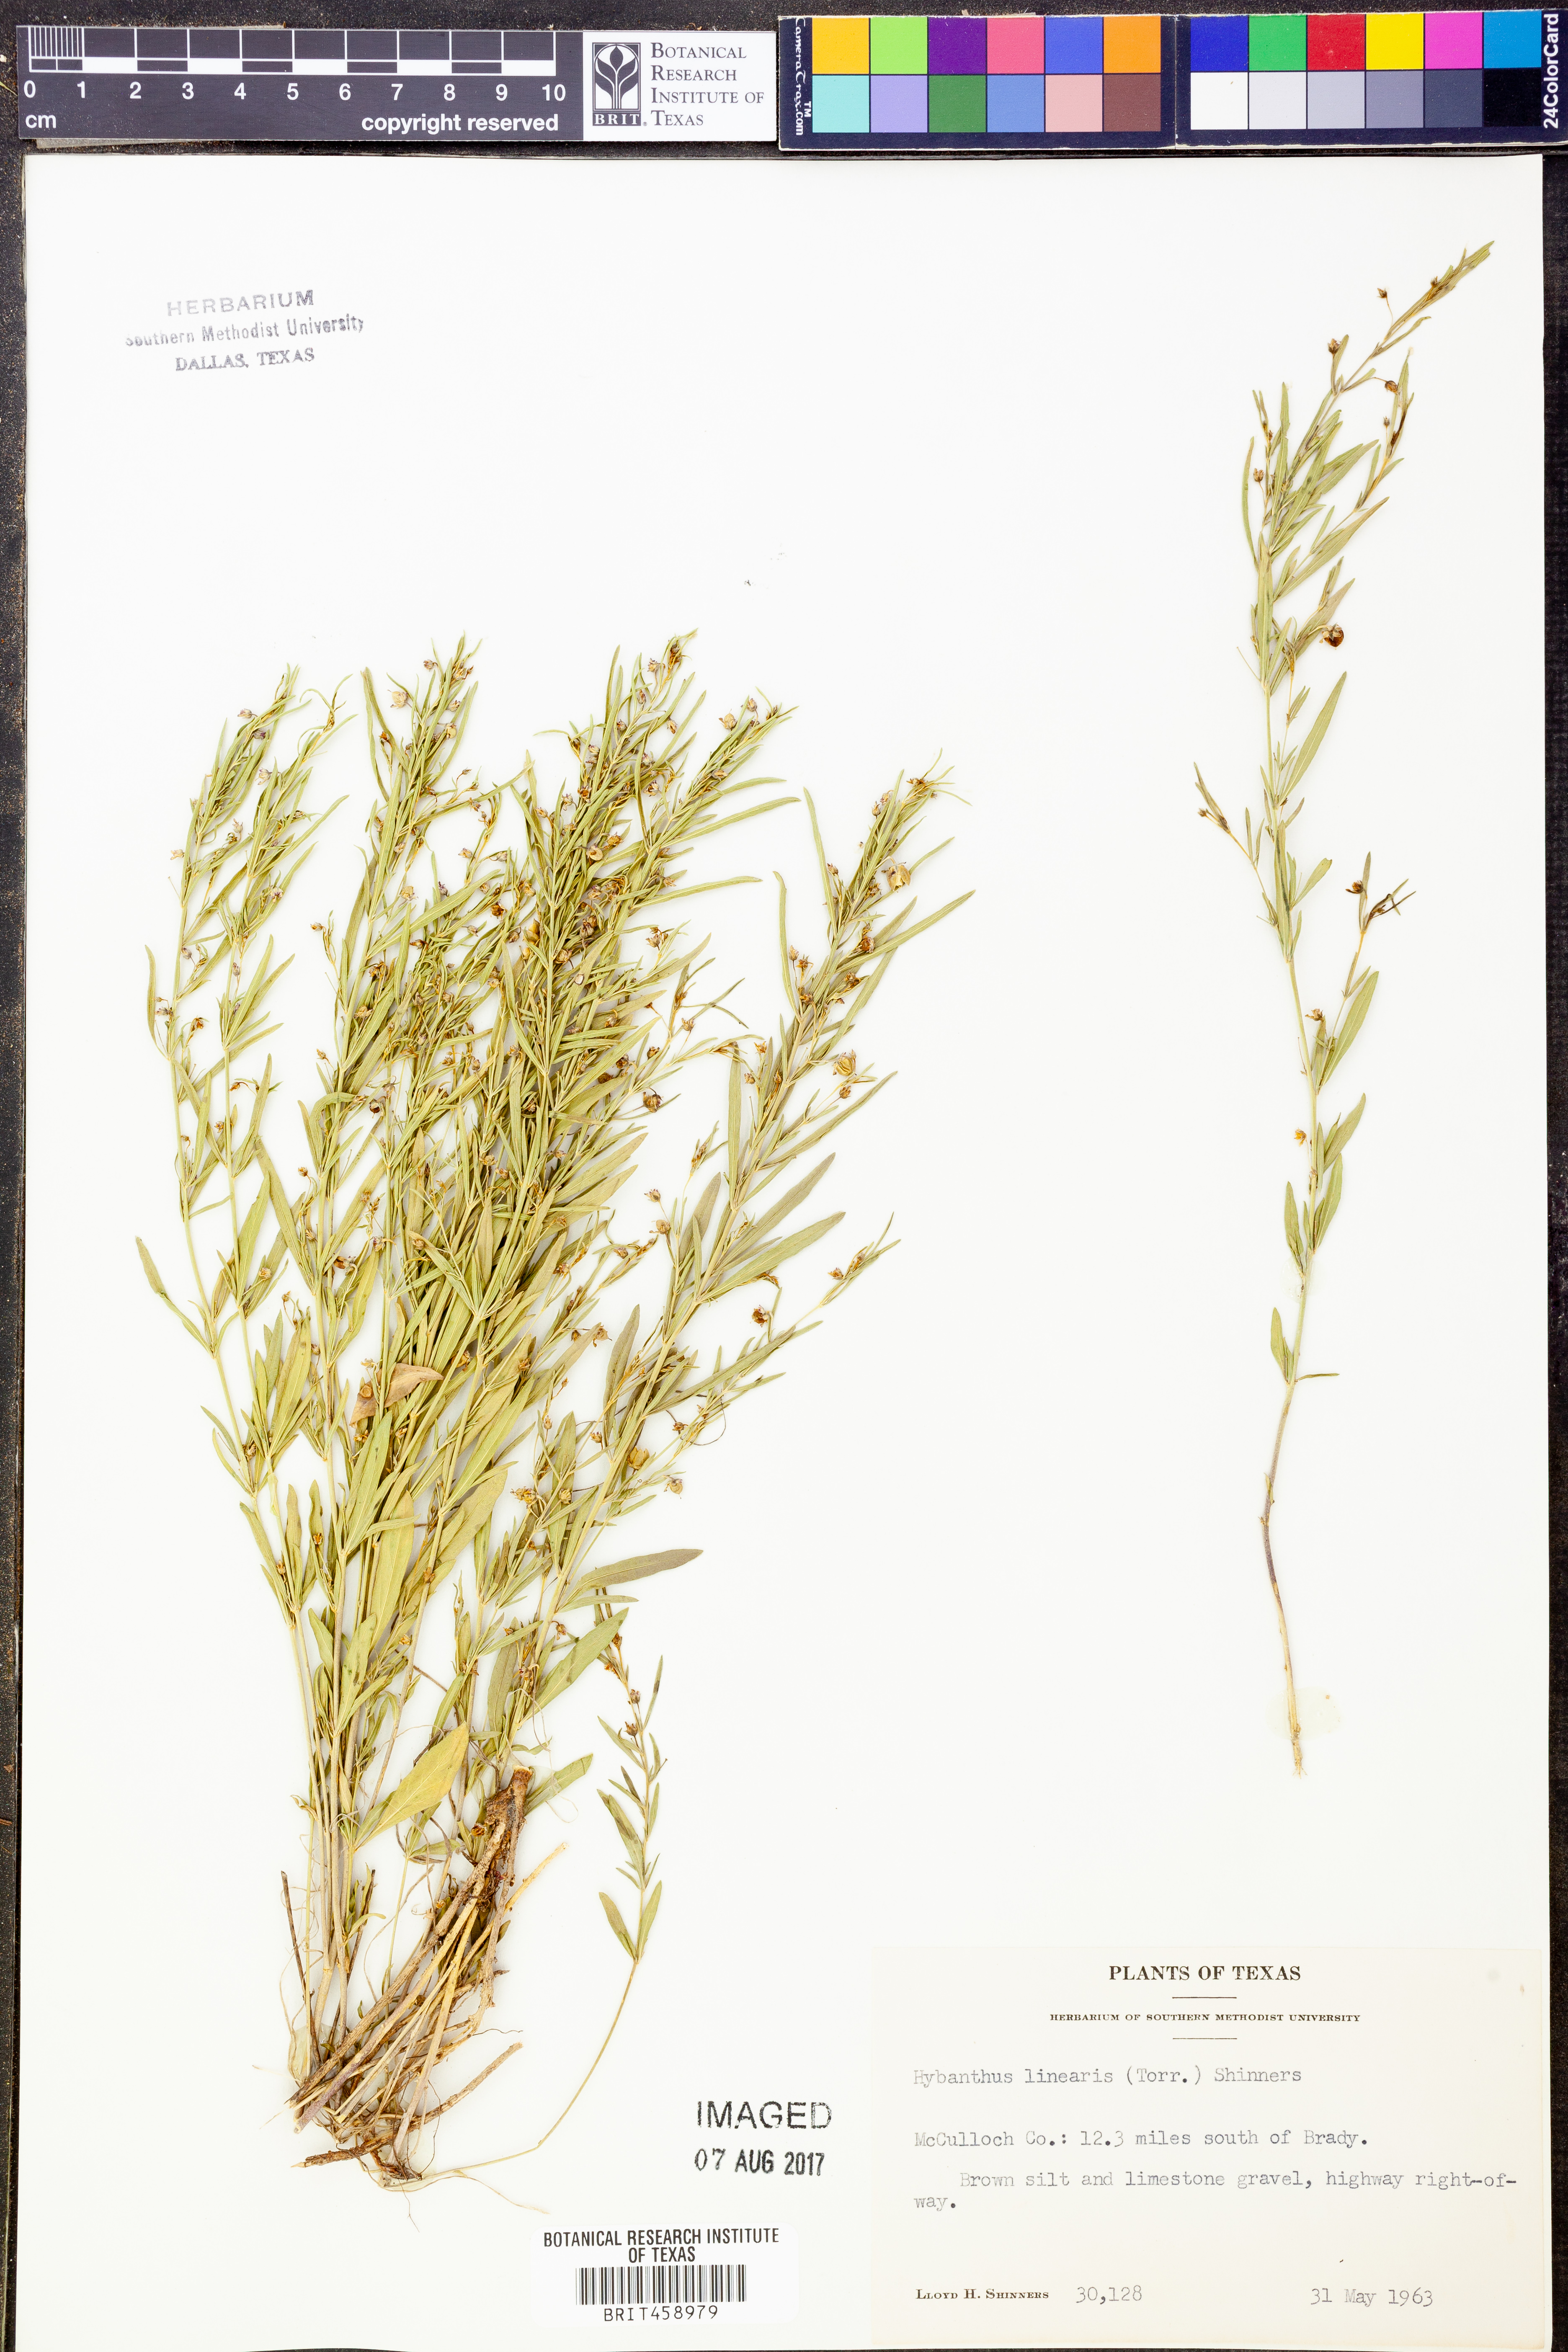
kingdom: Plantae
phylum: Tracheophyta
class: Magnoliopsida
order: Malpighiales
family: Violaceae
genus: Pombalia
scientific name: Pombalia verticillata
